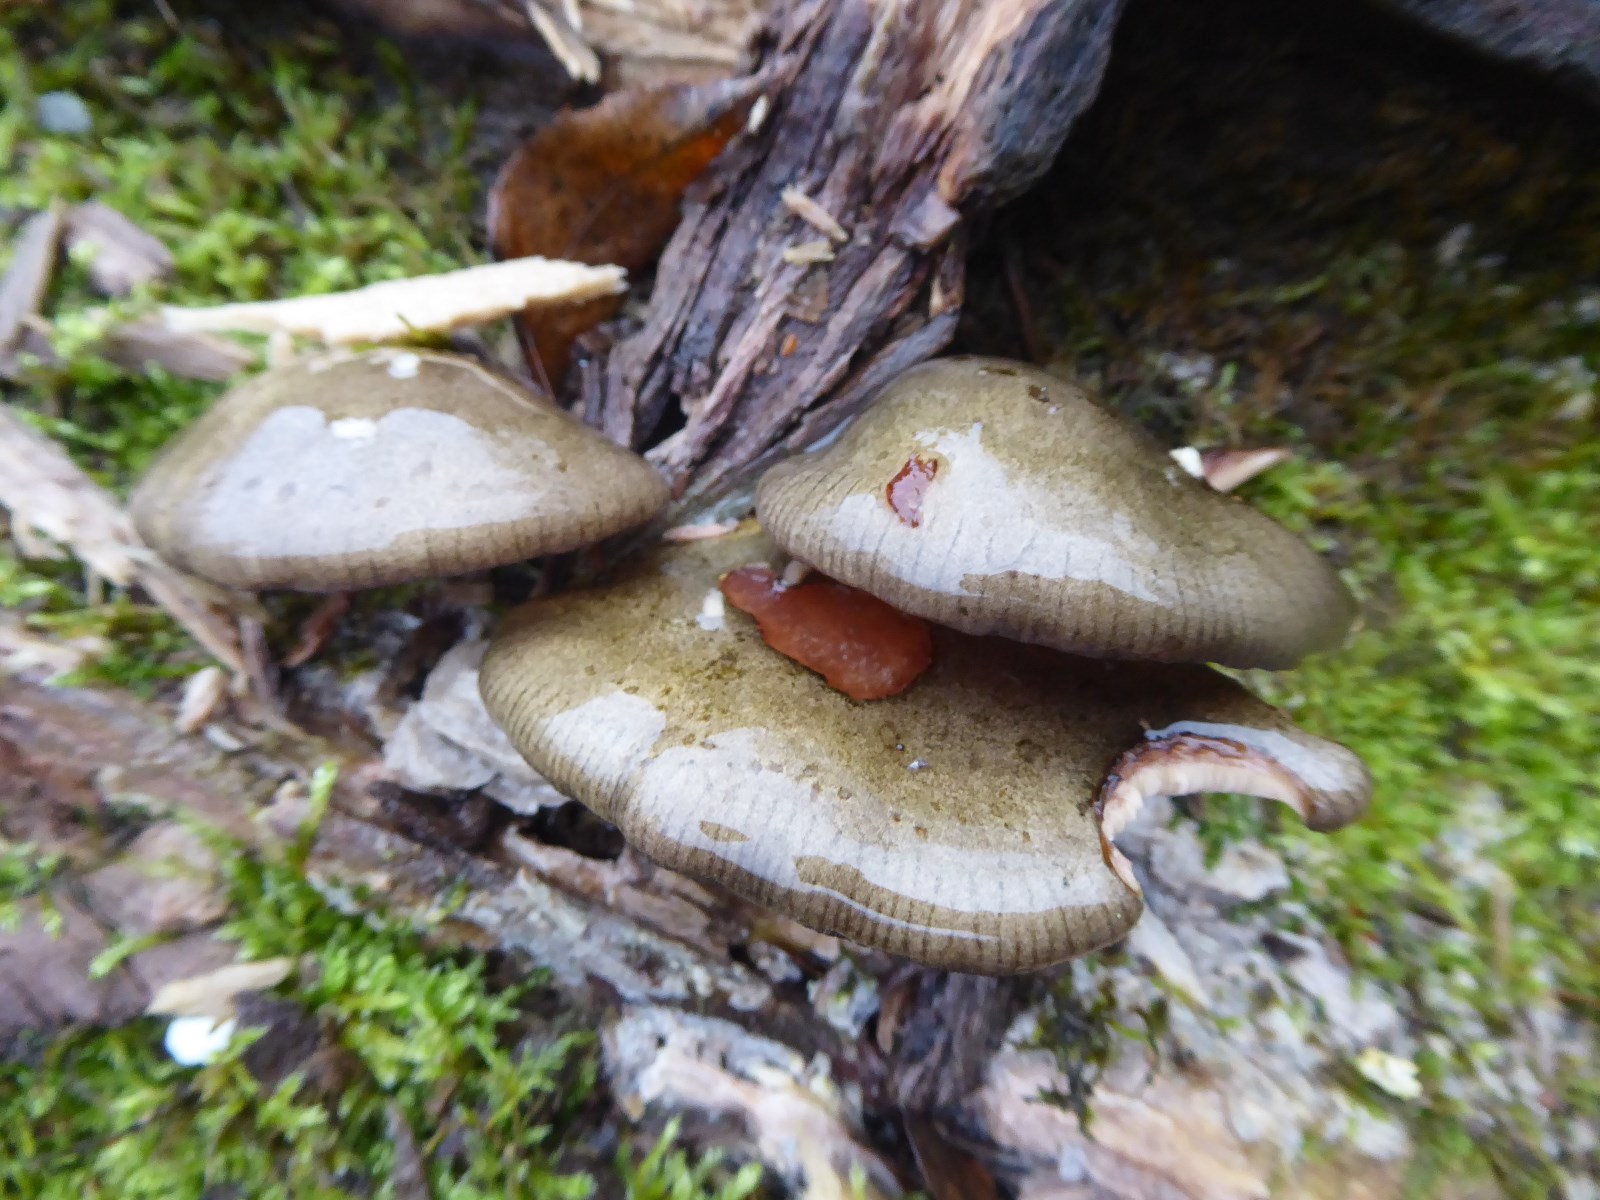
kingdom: Fungi
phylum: Basidiomycota
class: Agaricomycetes
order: Agaricales
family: Sarcomyxaceae
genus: Sarcomyxa
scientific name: Sarcomyxa serotina
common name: gummihat
